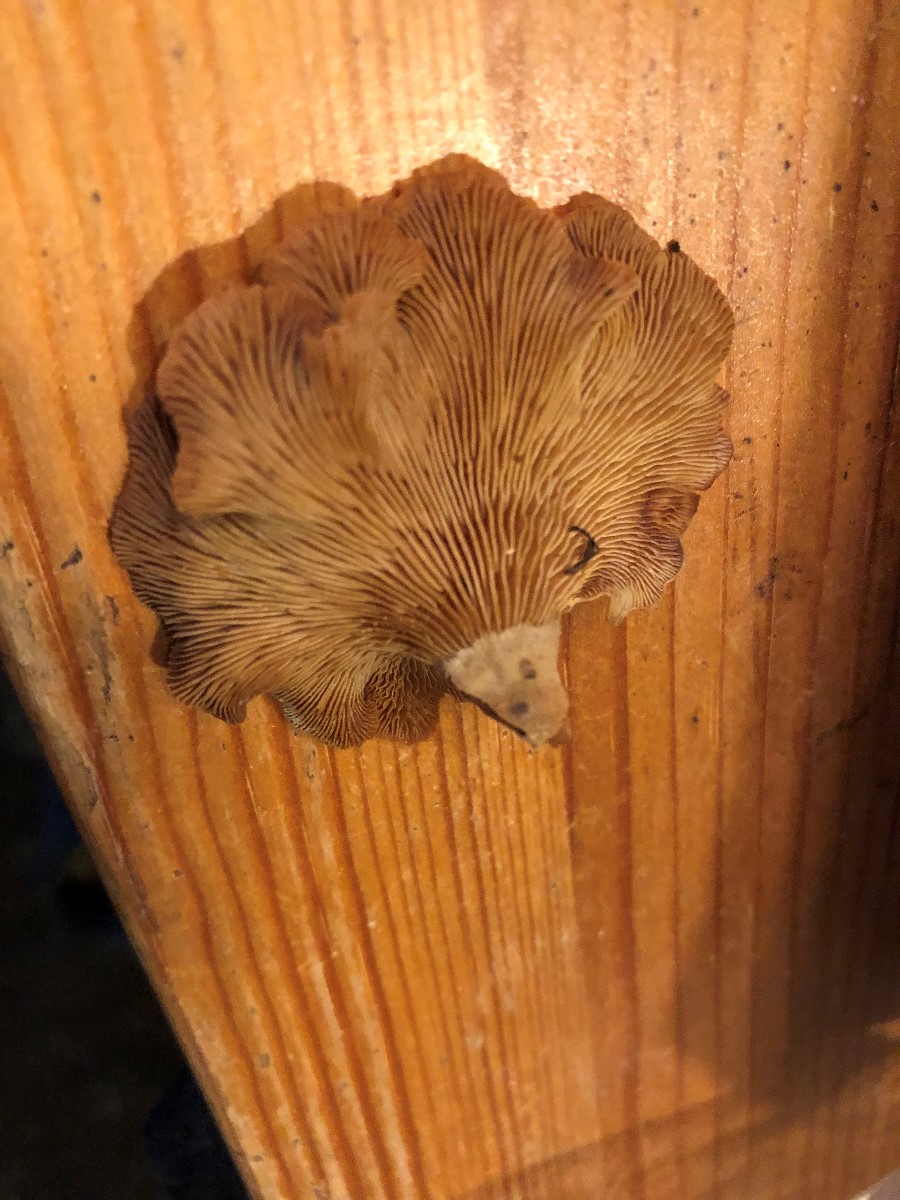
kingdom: Fungi
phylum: Basidiomycota
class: Agaricomycetes
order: Agaricales
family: Mycenaceae
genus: Panellus
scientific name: Panellus stipticus
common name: kliddet epaulethat
